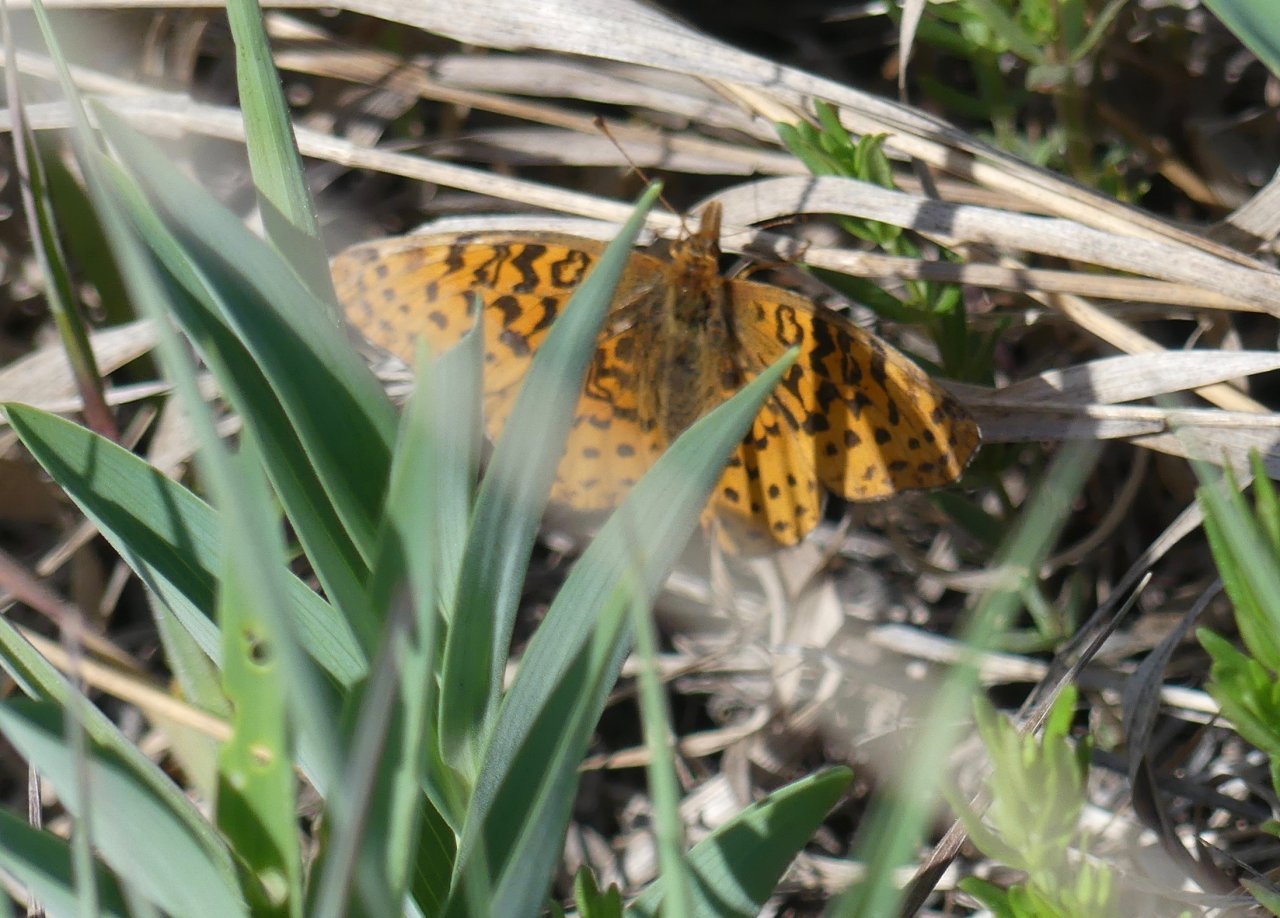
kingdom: Animalia
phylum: Arthropoda
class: Insecta
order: Lepidoptera
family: Nymphalidae
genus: Clossiana
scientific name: Clossiana toddi
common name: Meadow Fritillary
